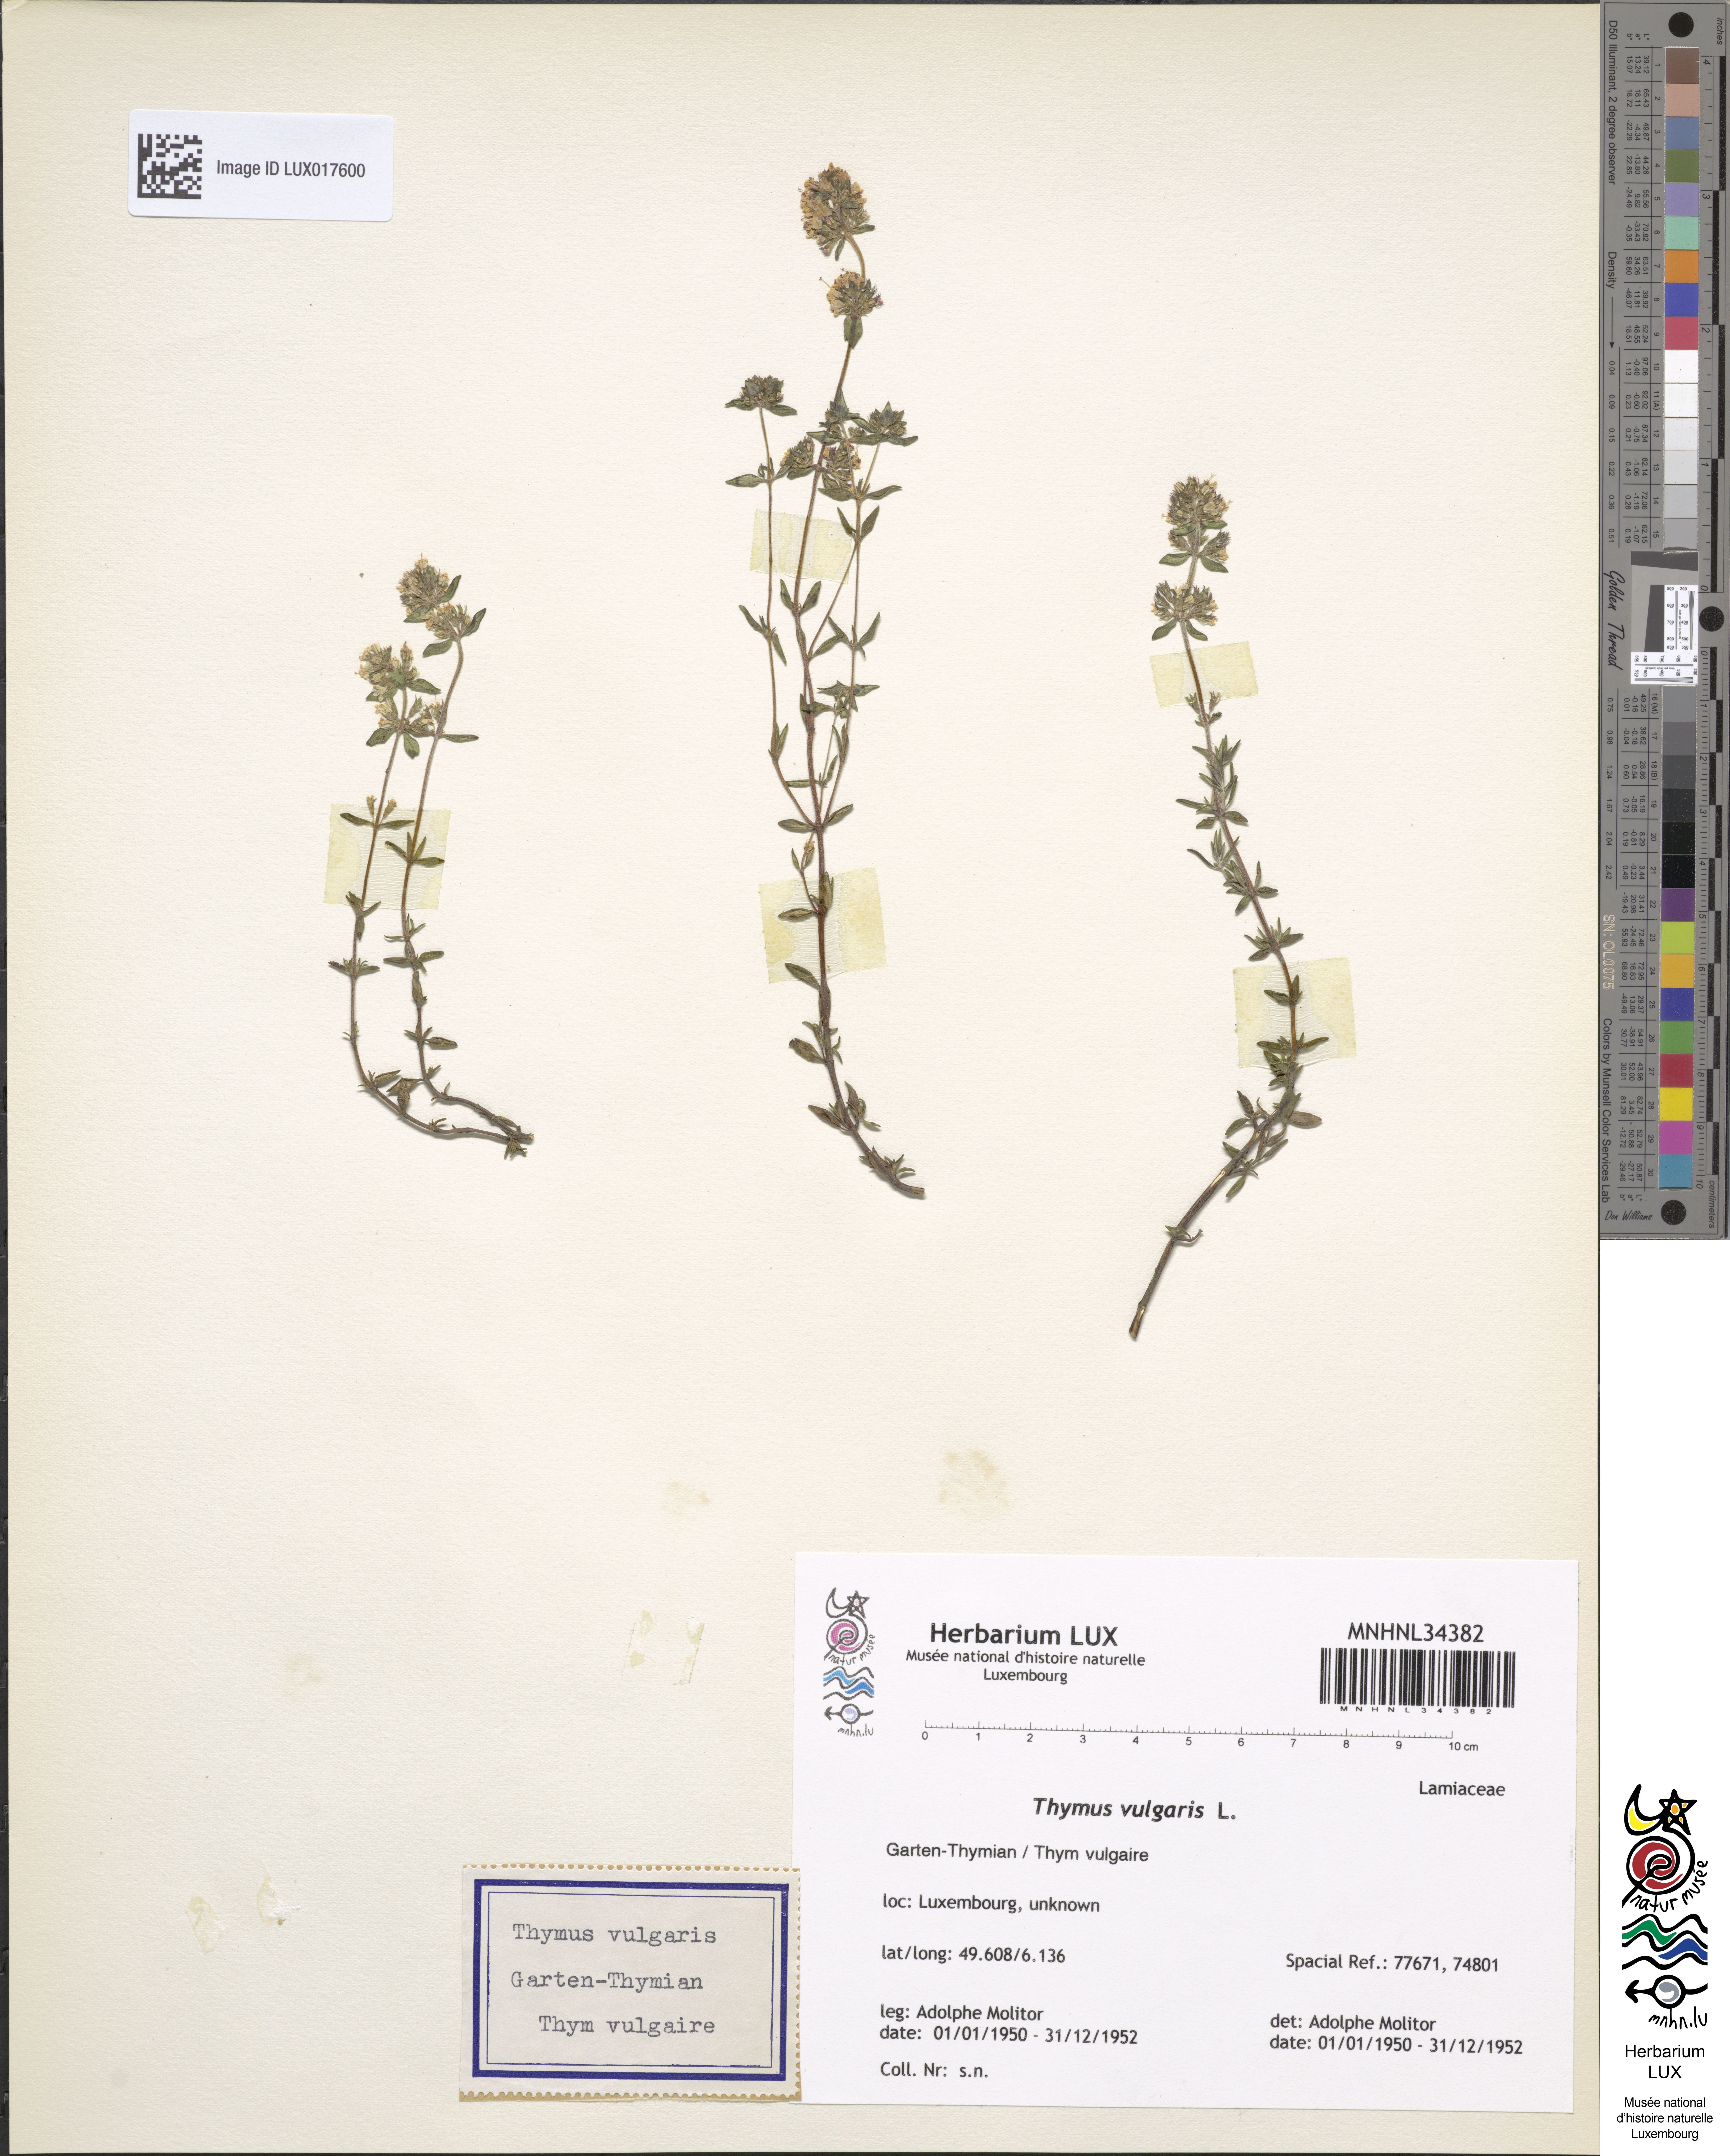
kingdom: Plantae
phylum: Tracheophyta
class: Magnoliopsida
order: Lamiales
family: Lamiaceae
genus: Thymus
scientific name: Thymus vulgaris
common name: Garden thyme
